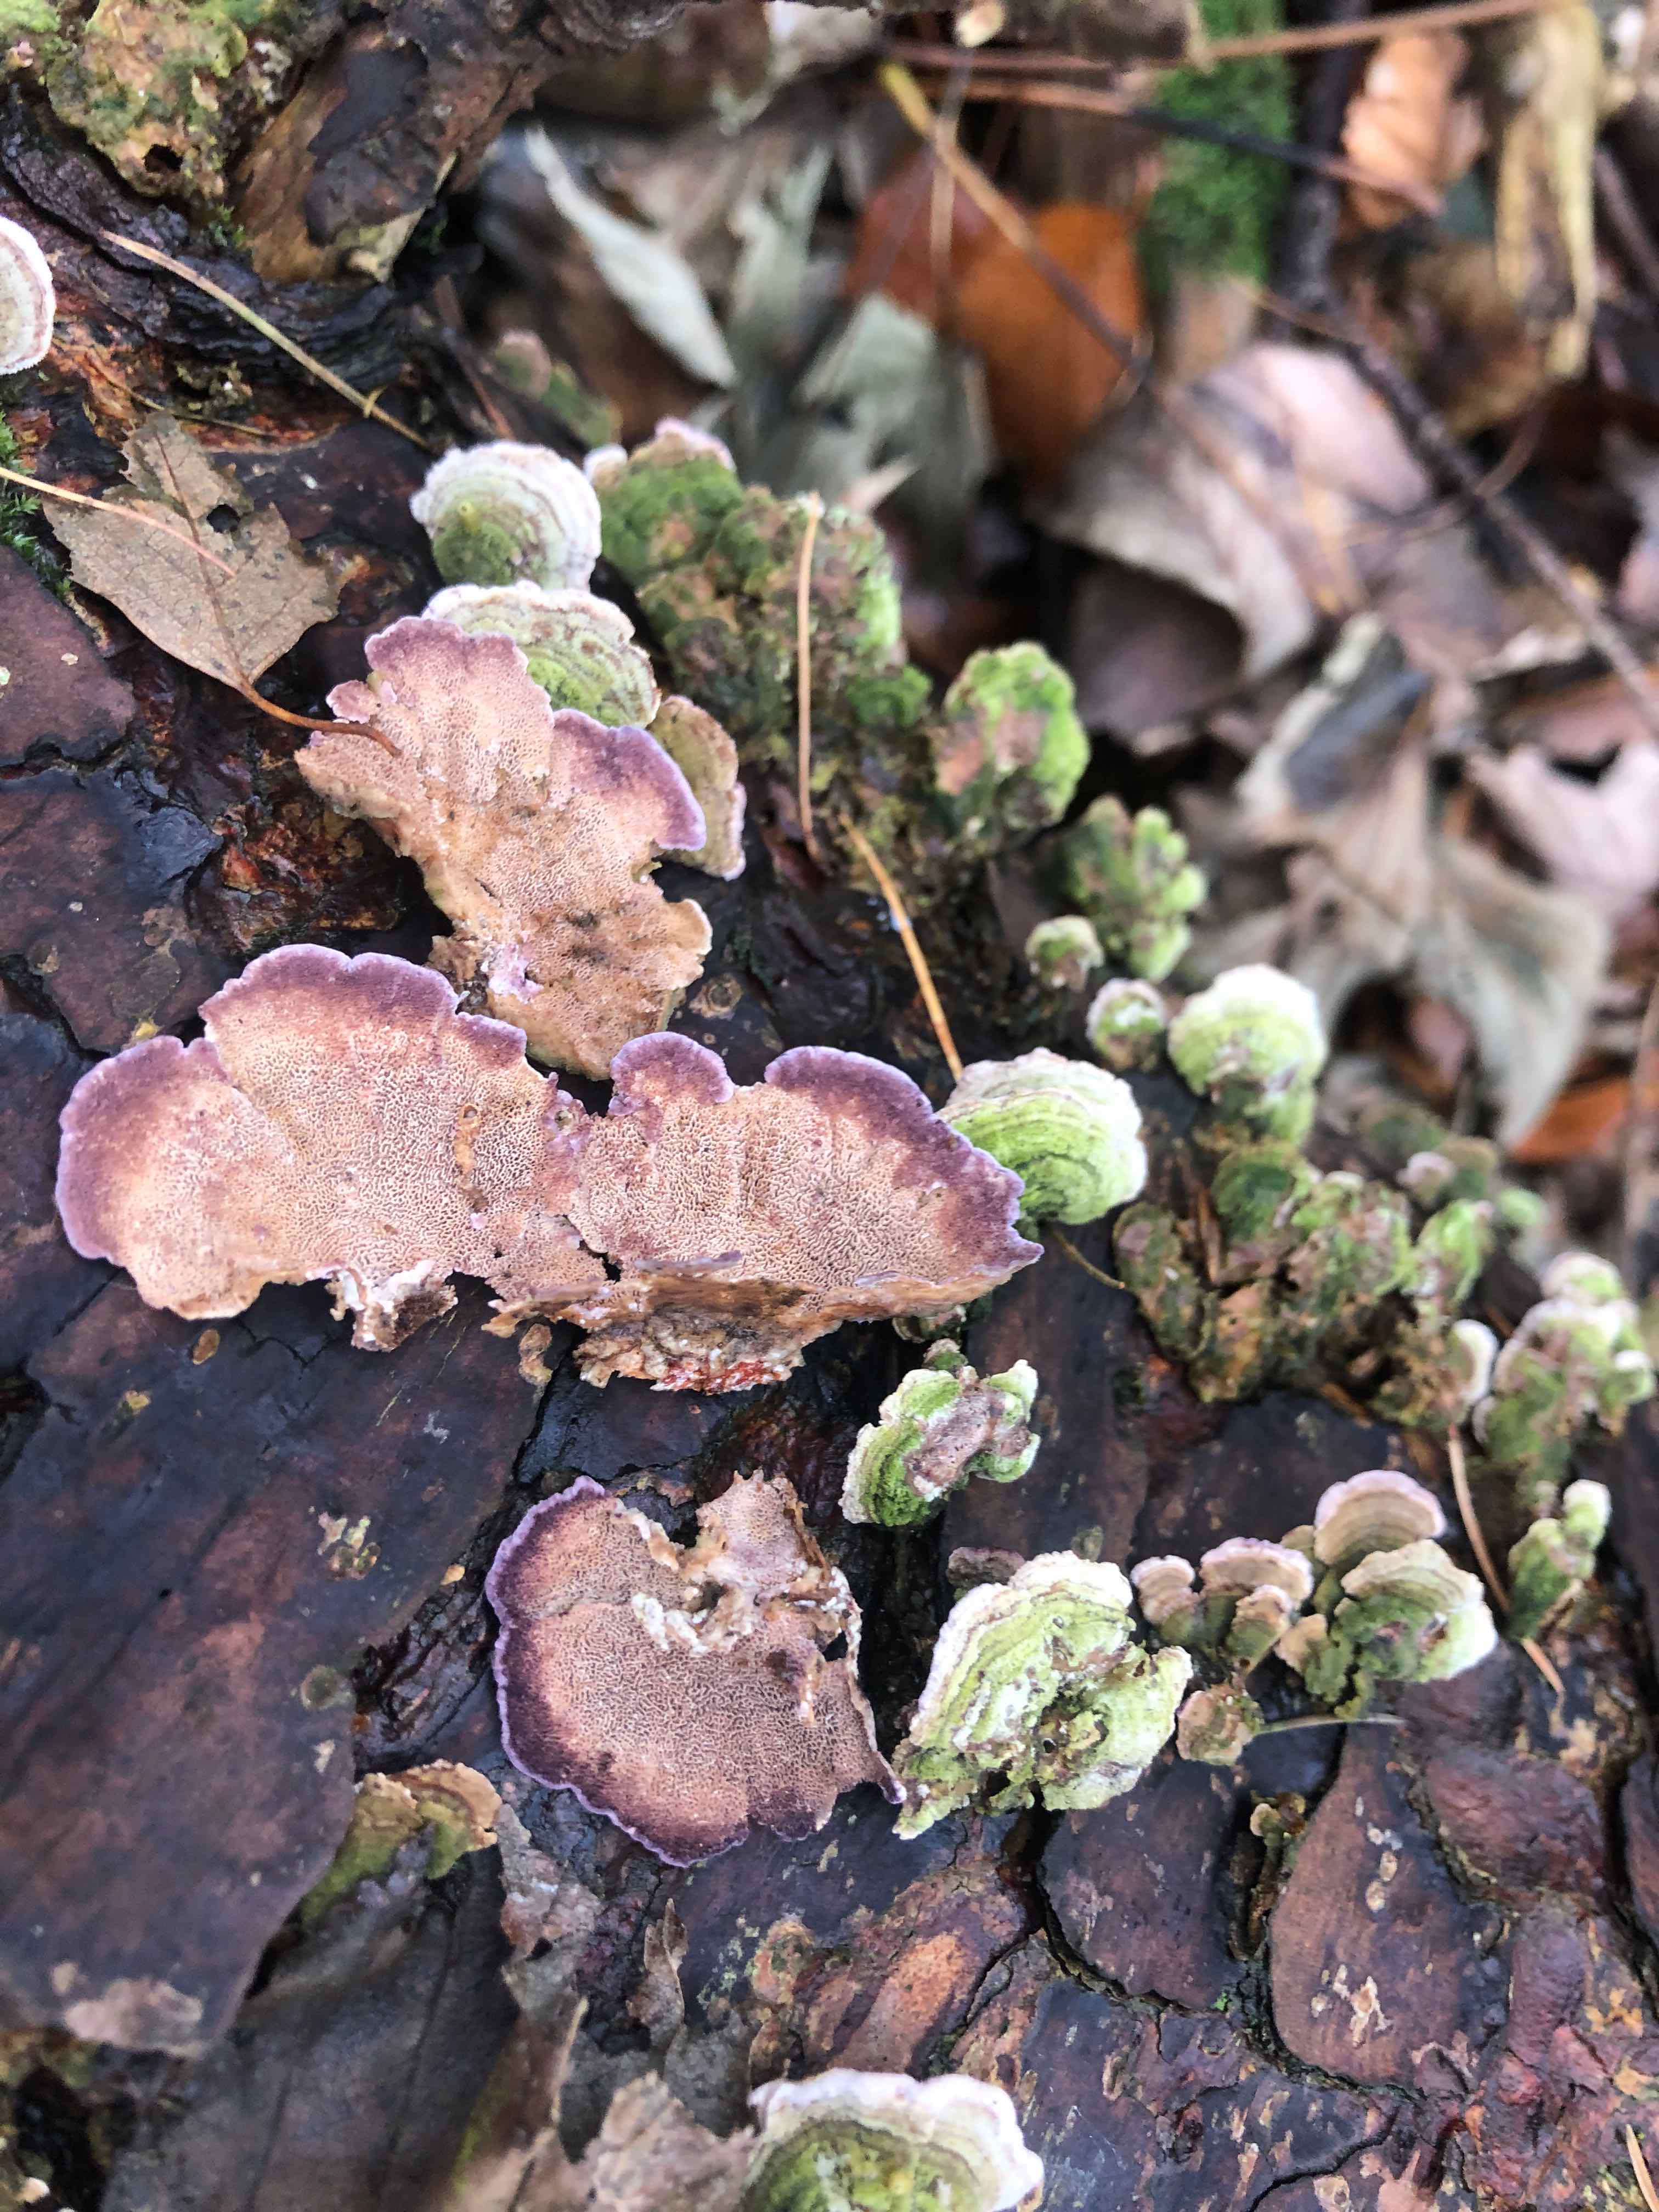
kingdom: Fungi
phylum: Basidiomycota
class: Agaricomycetes
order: Hymenochaetales
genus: Trichaptum
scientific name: Trichaptum abietinum
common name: almindelig violporesvamp
